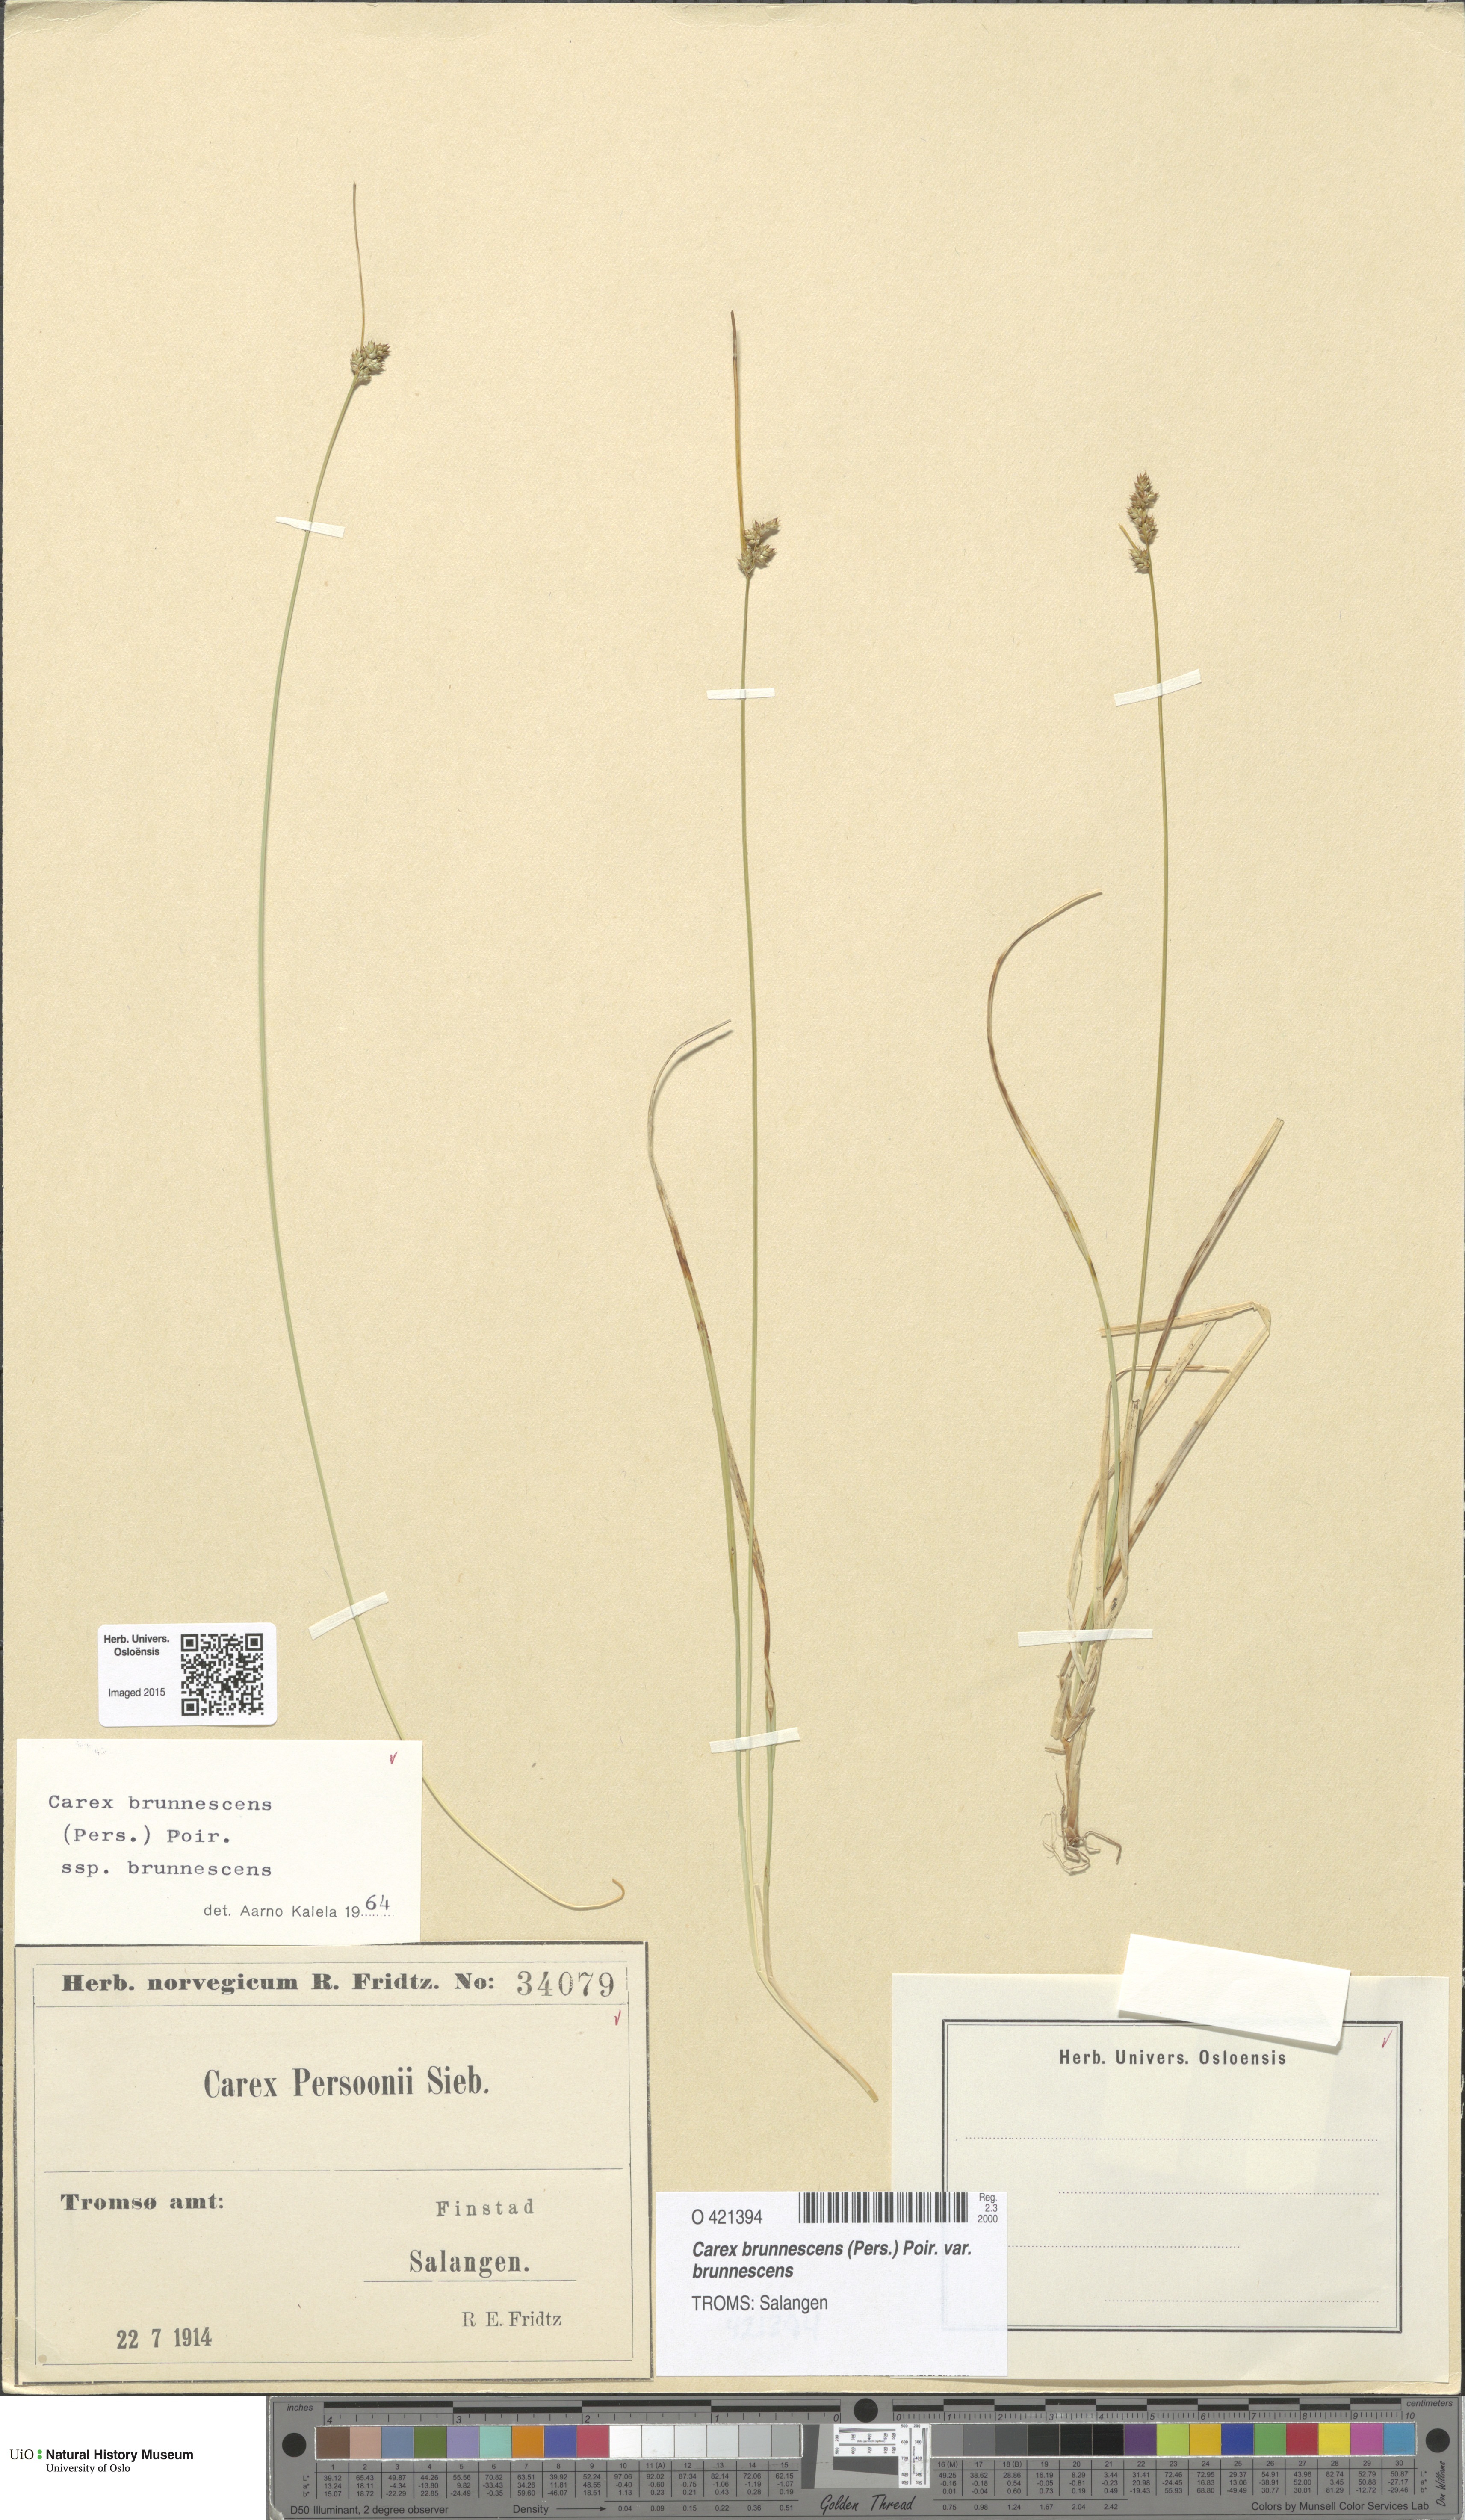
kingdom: Plantae
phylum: Tracheophyta
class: Liliopsida
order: Poales
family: Cyperaceae
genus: Carex
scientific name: Carex brunnescens
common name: Brown sedge
